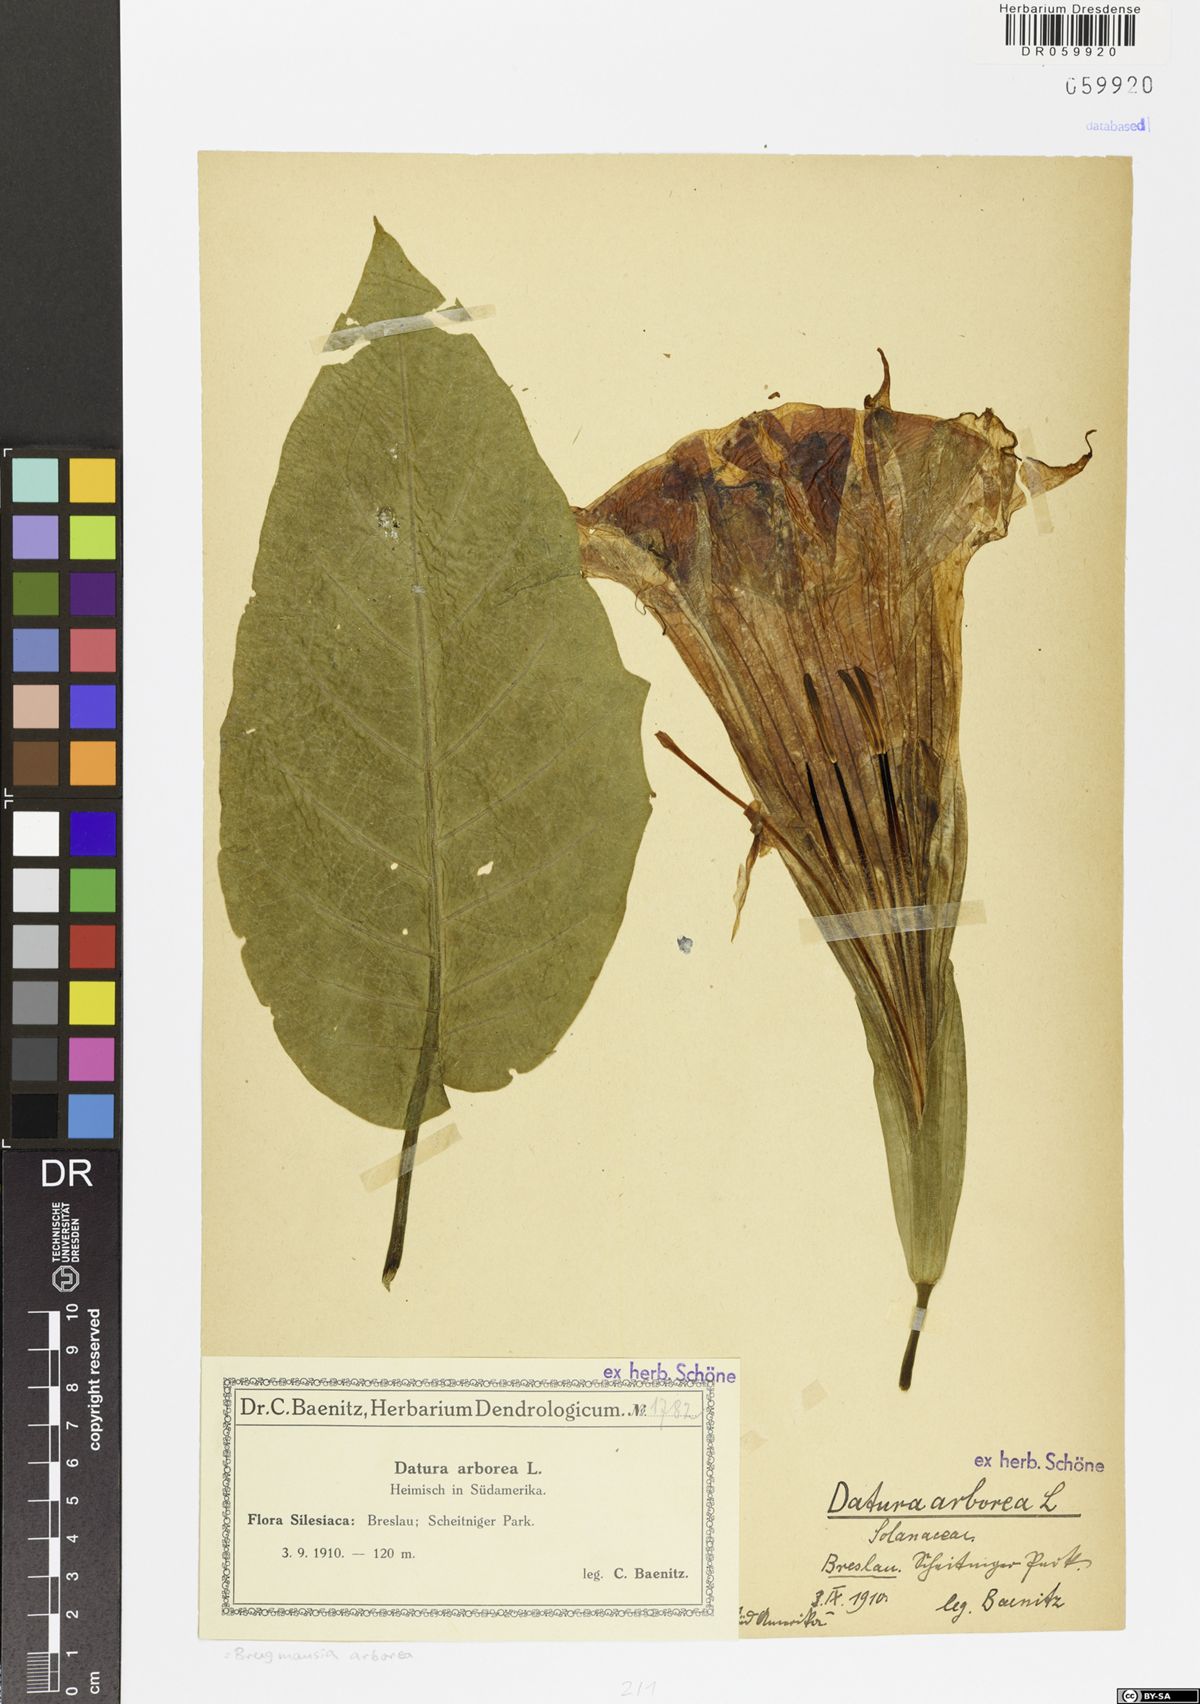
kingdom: Plantae
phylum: Tracheophyta
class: Magnoliopsida
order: Solanales
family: Solanaceae
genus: Brugmansia
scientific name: Brugmansia arborea
